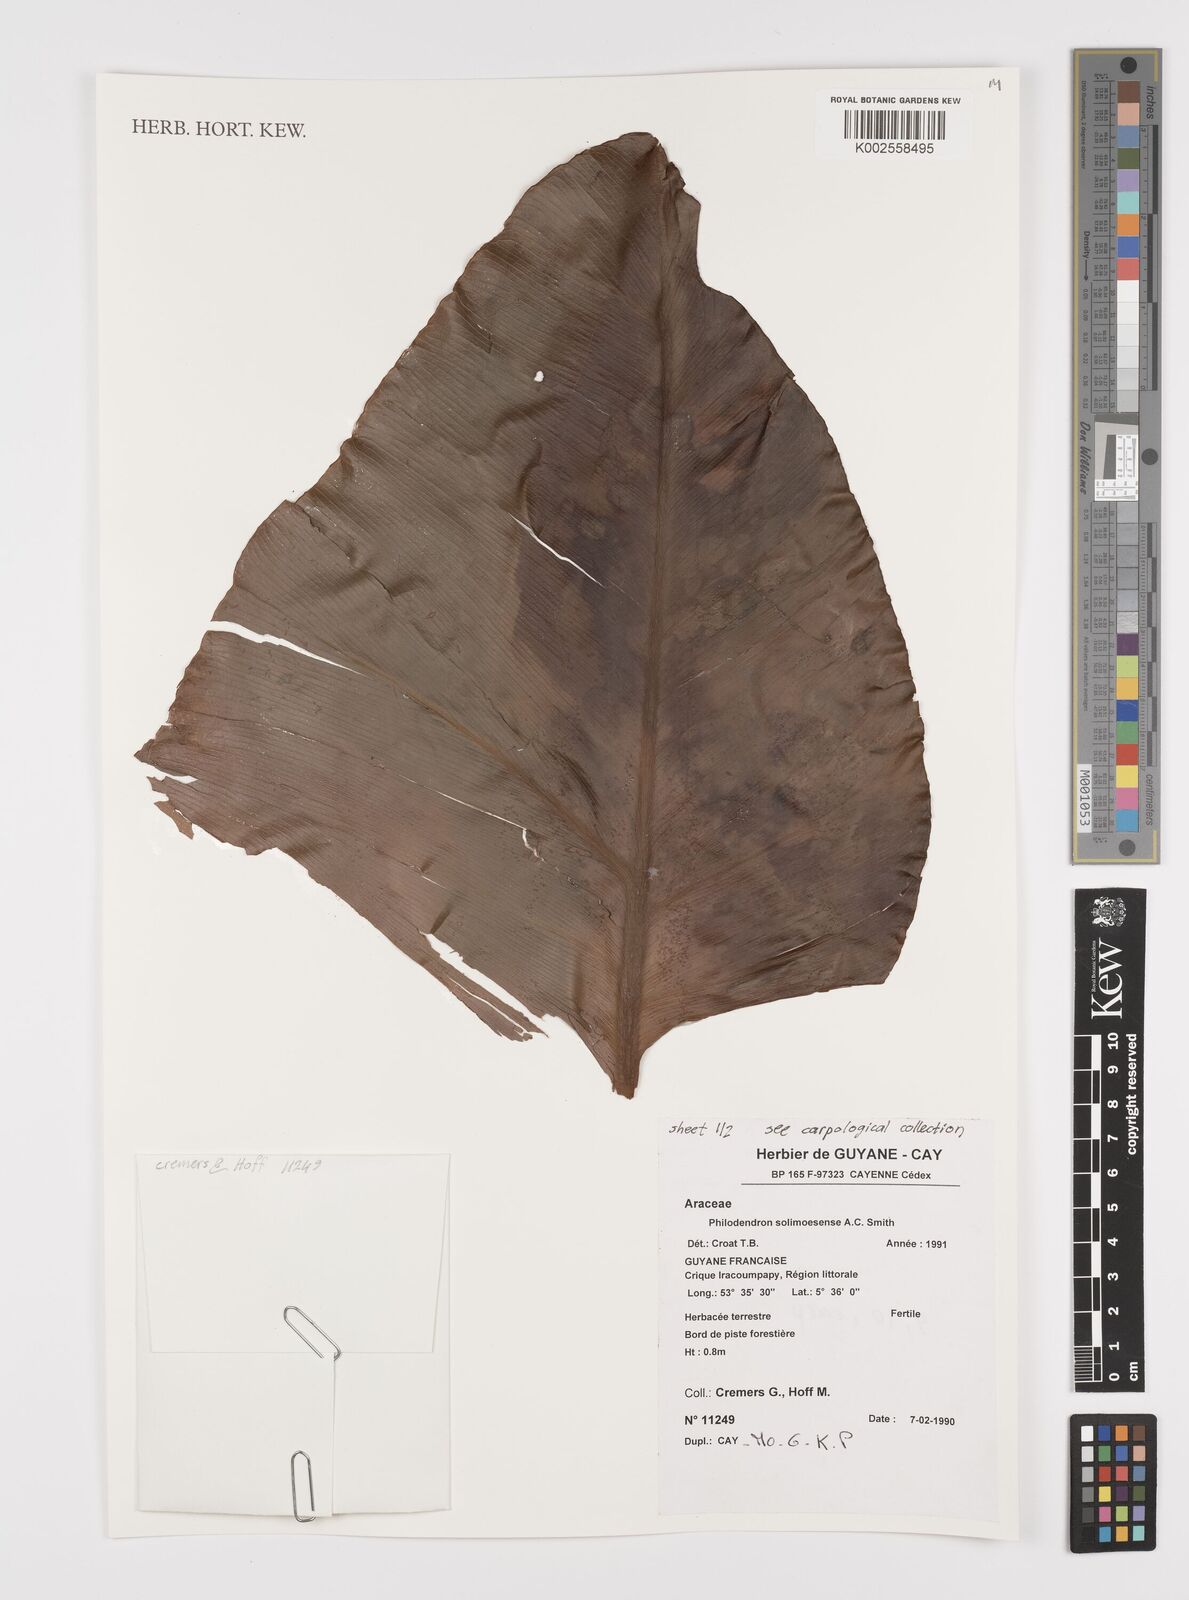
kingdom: Plantae
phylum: Tracheophyta
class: Liliopsida
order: Alismatales
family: Araceae
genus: Thaumatophyllum
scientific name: Thaumatophyllum solimoesense
